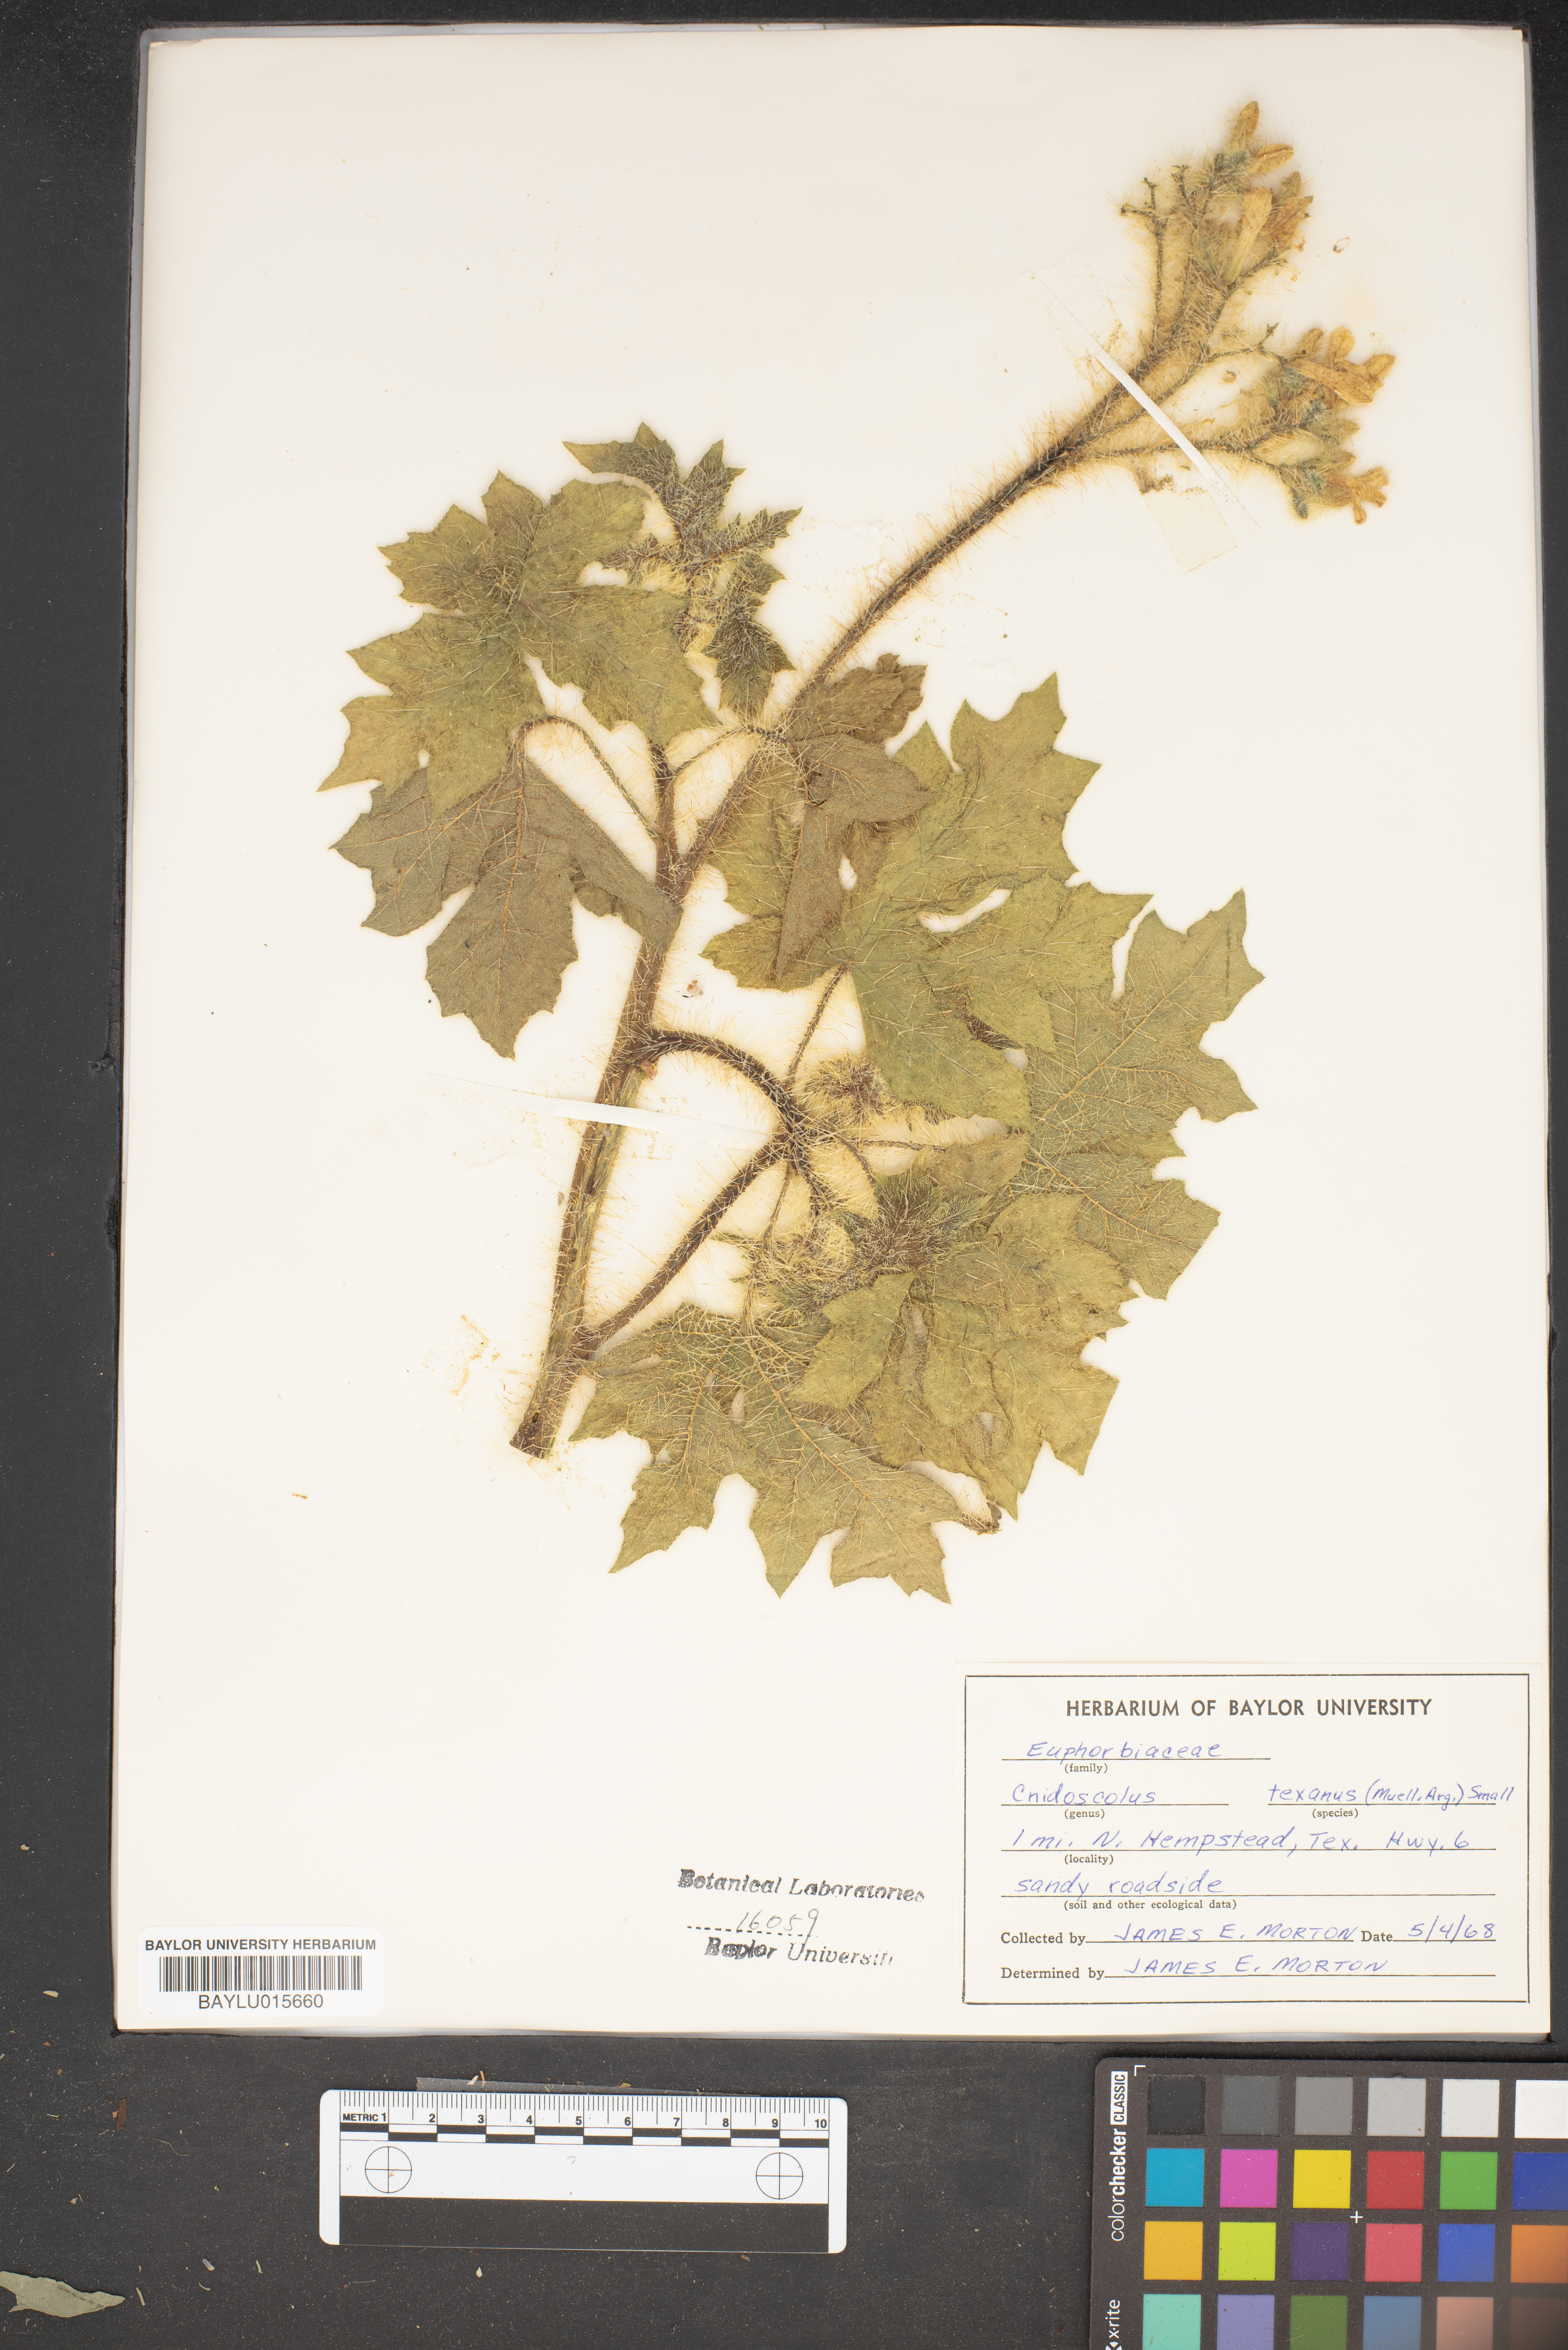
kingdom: Plantae
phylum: Tracheophyta
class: Magnoliopsida
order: Malpighiales
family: Euphorbiaceae
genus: Cnidoscolus
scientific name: Cnidoscolus texanus
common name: Texas bull-nettle
